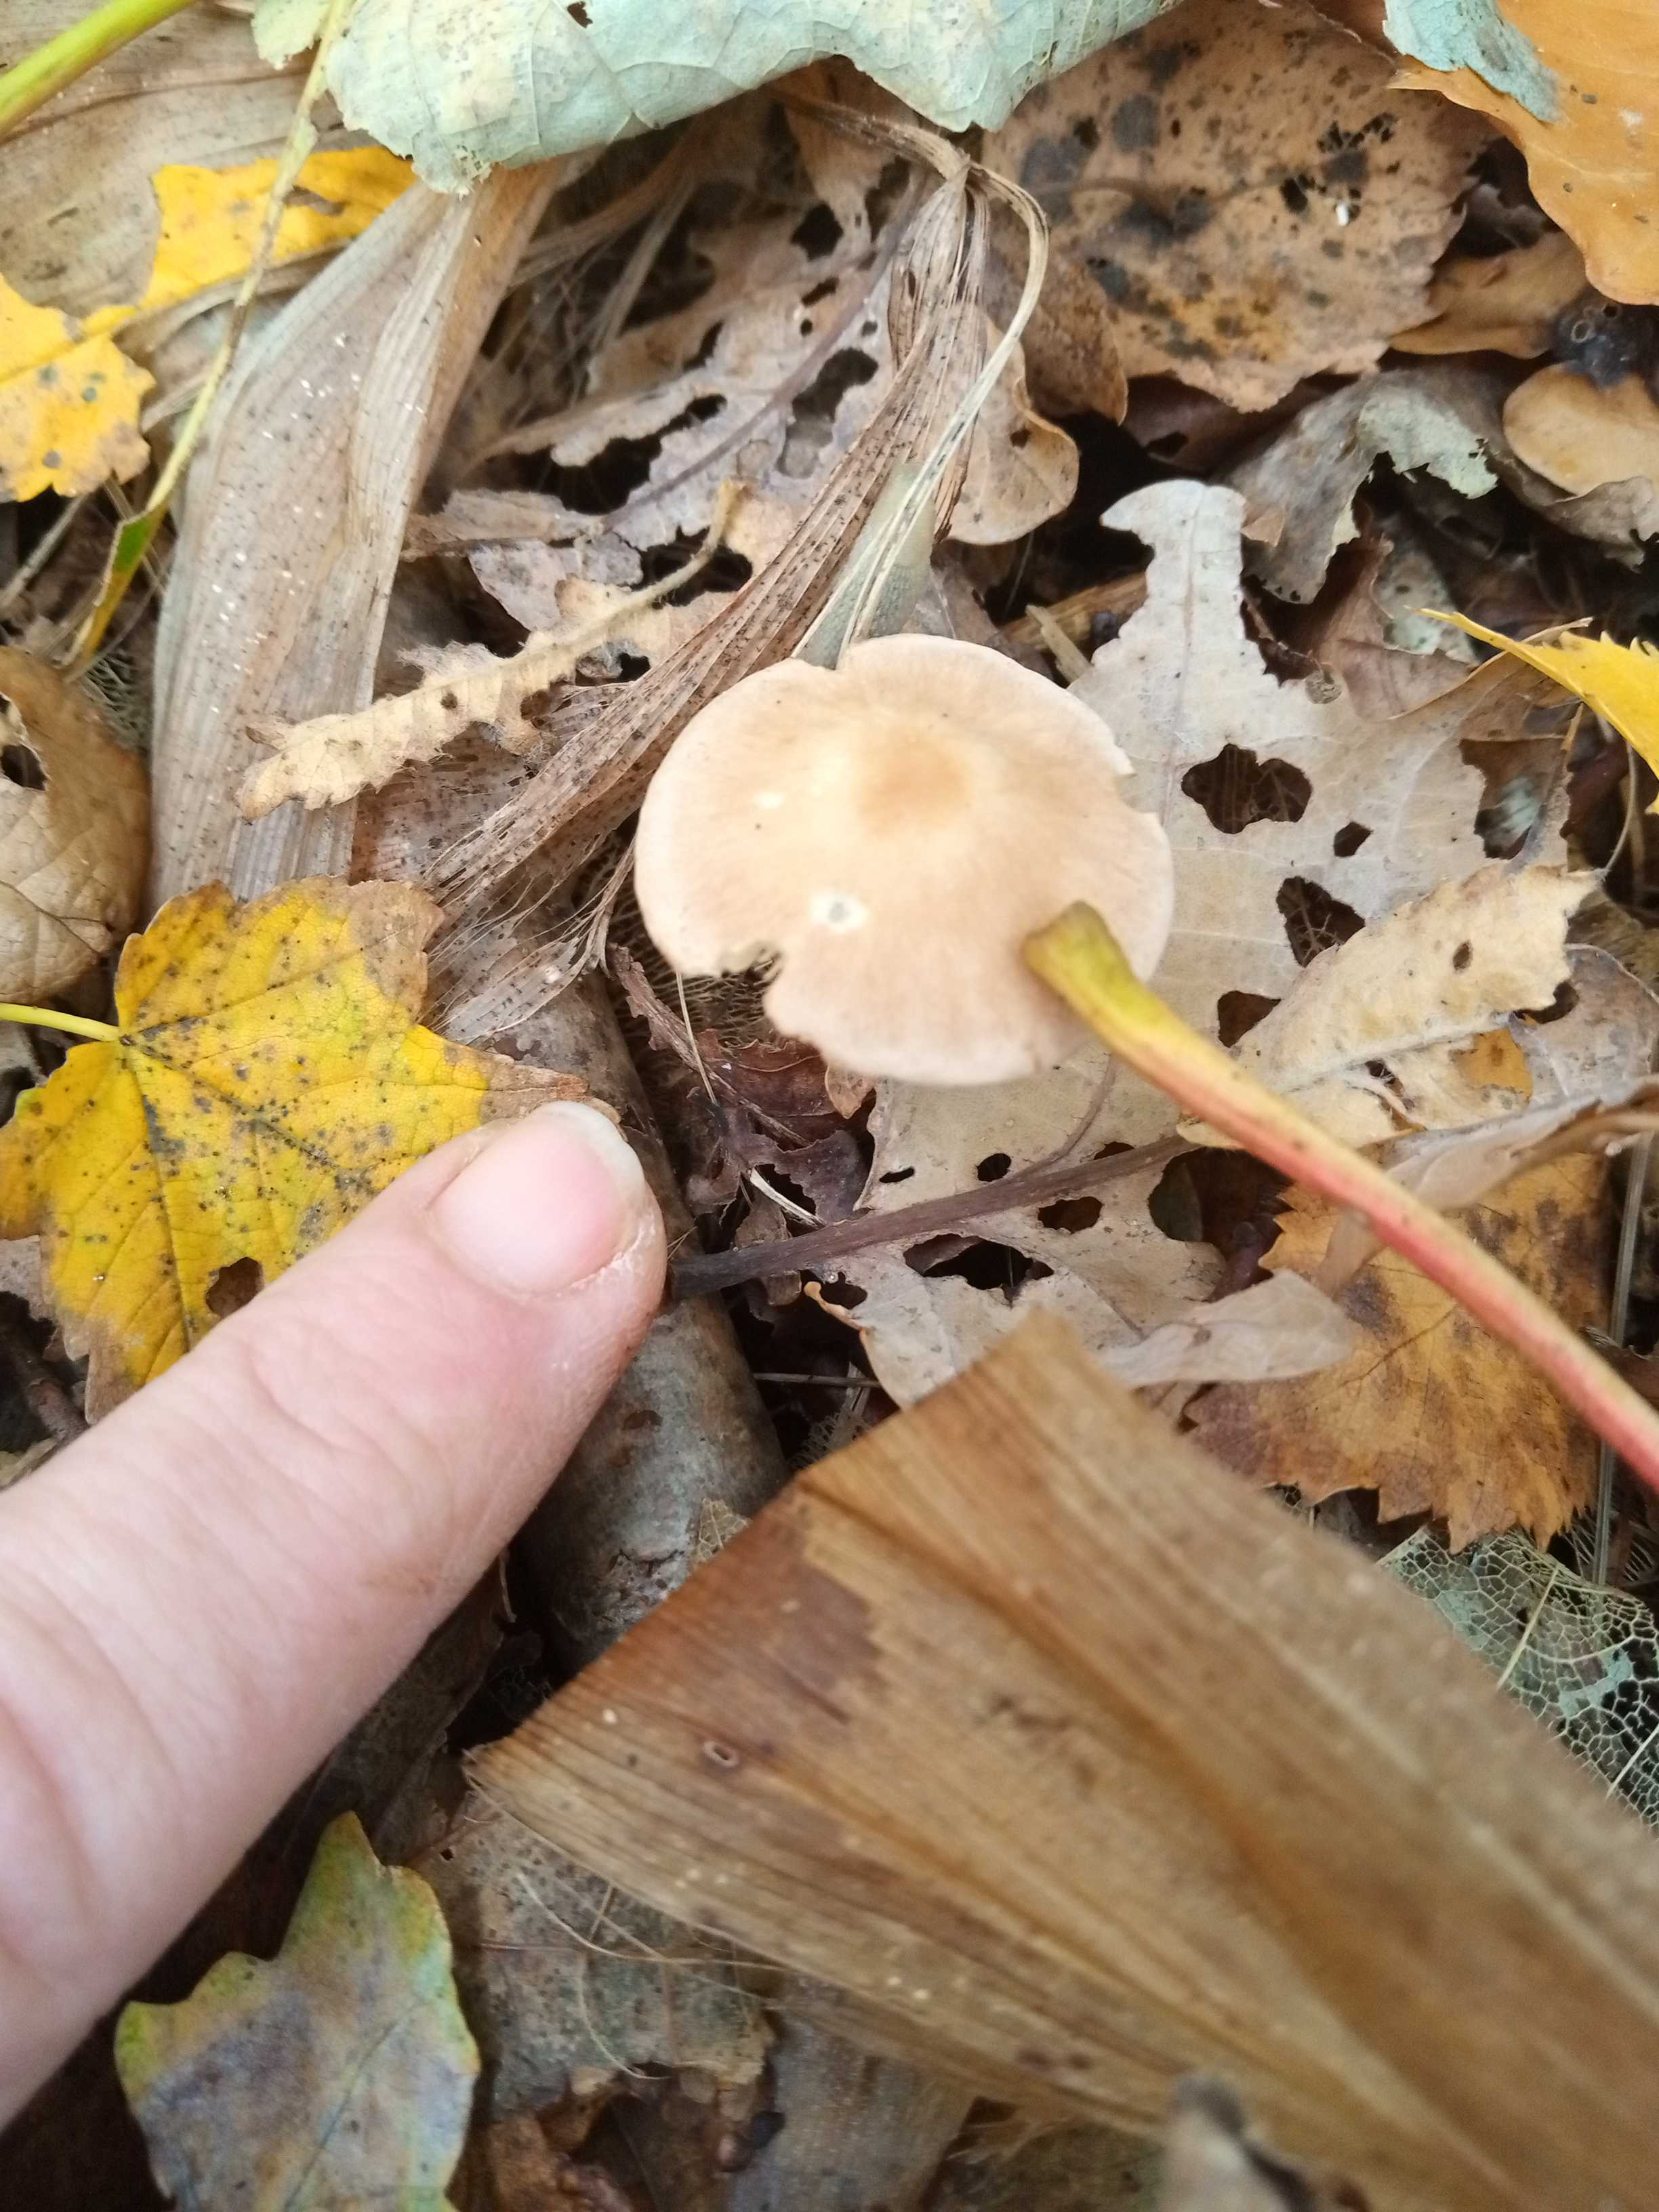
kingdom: Fungi
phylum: Basidiomycota
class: Agaricomycetes
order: Agaricales
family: Omphalotaceae
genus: Collybiopsis
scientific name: Collybiopsis peronata
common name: bestøvlet fladhat
